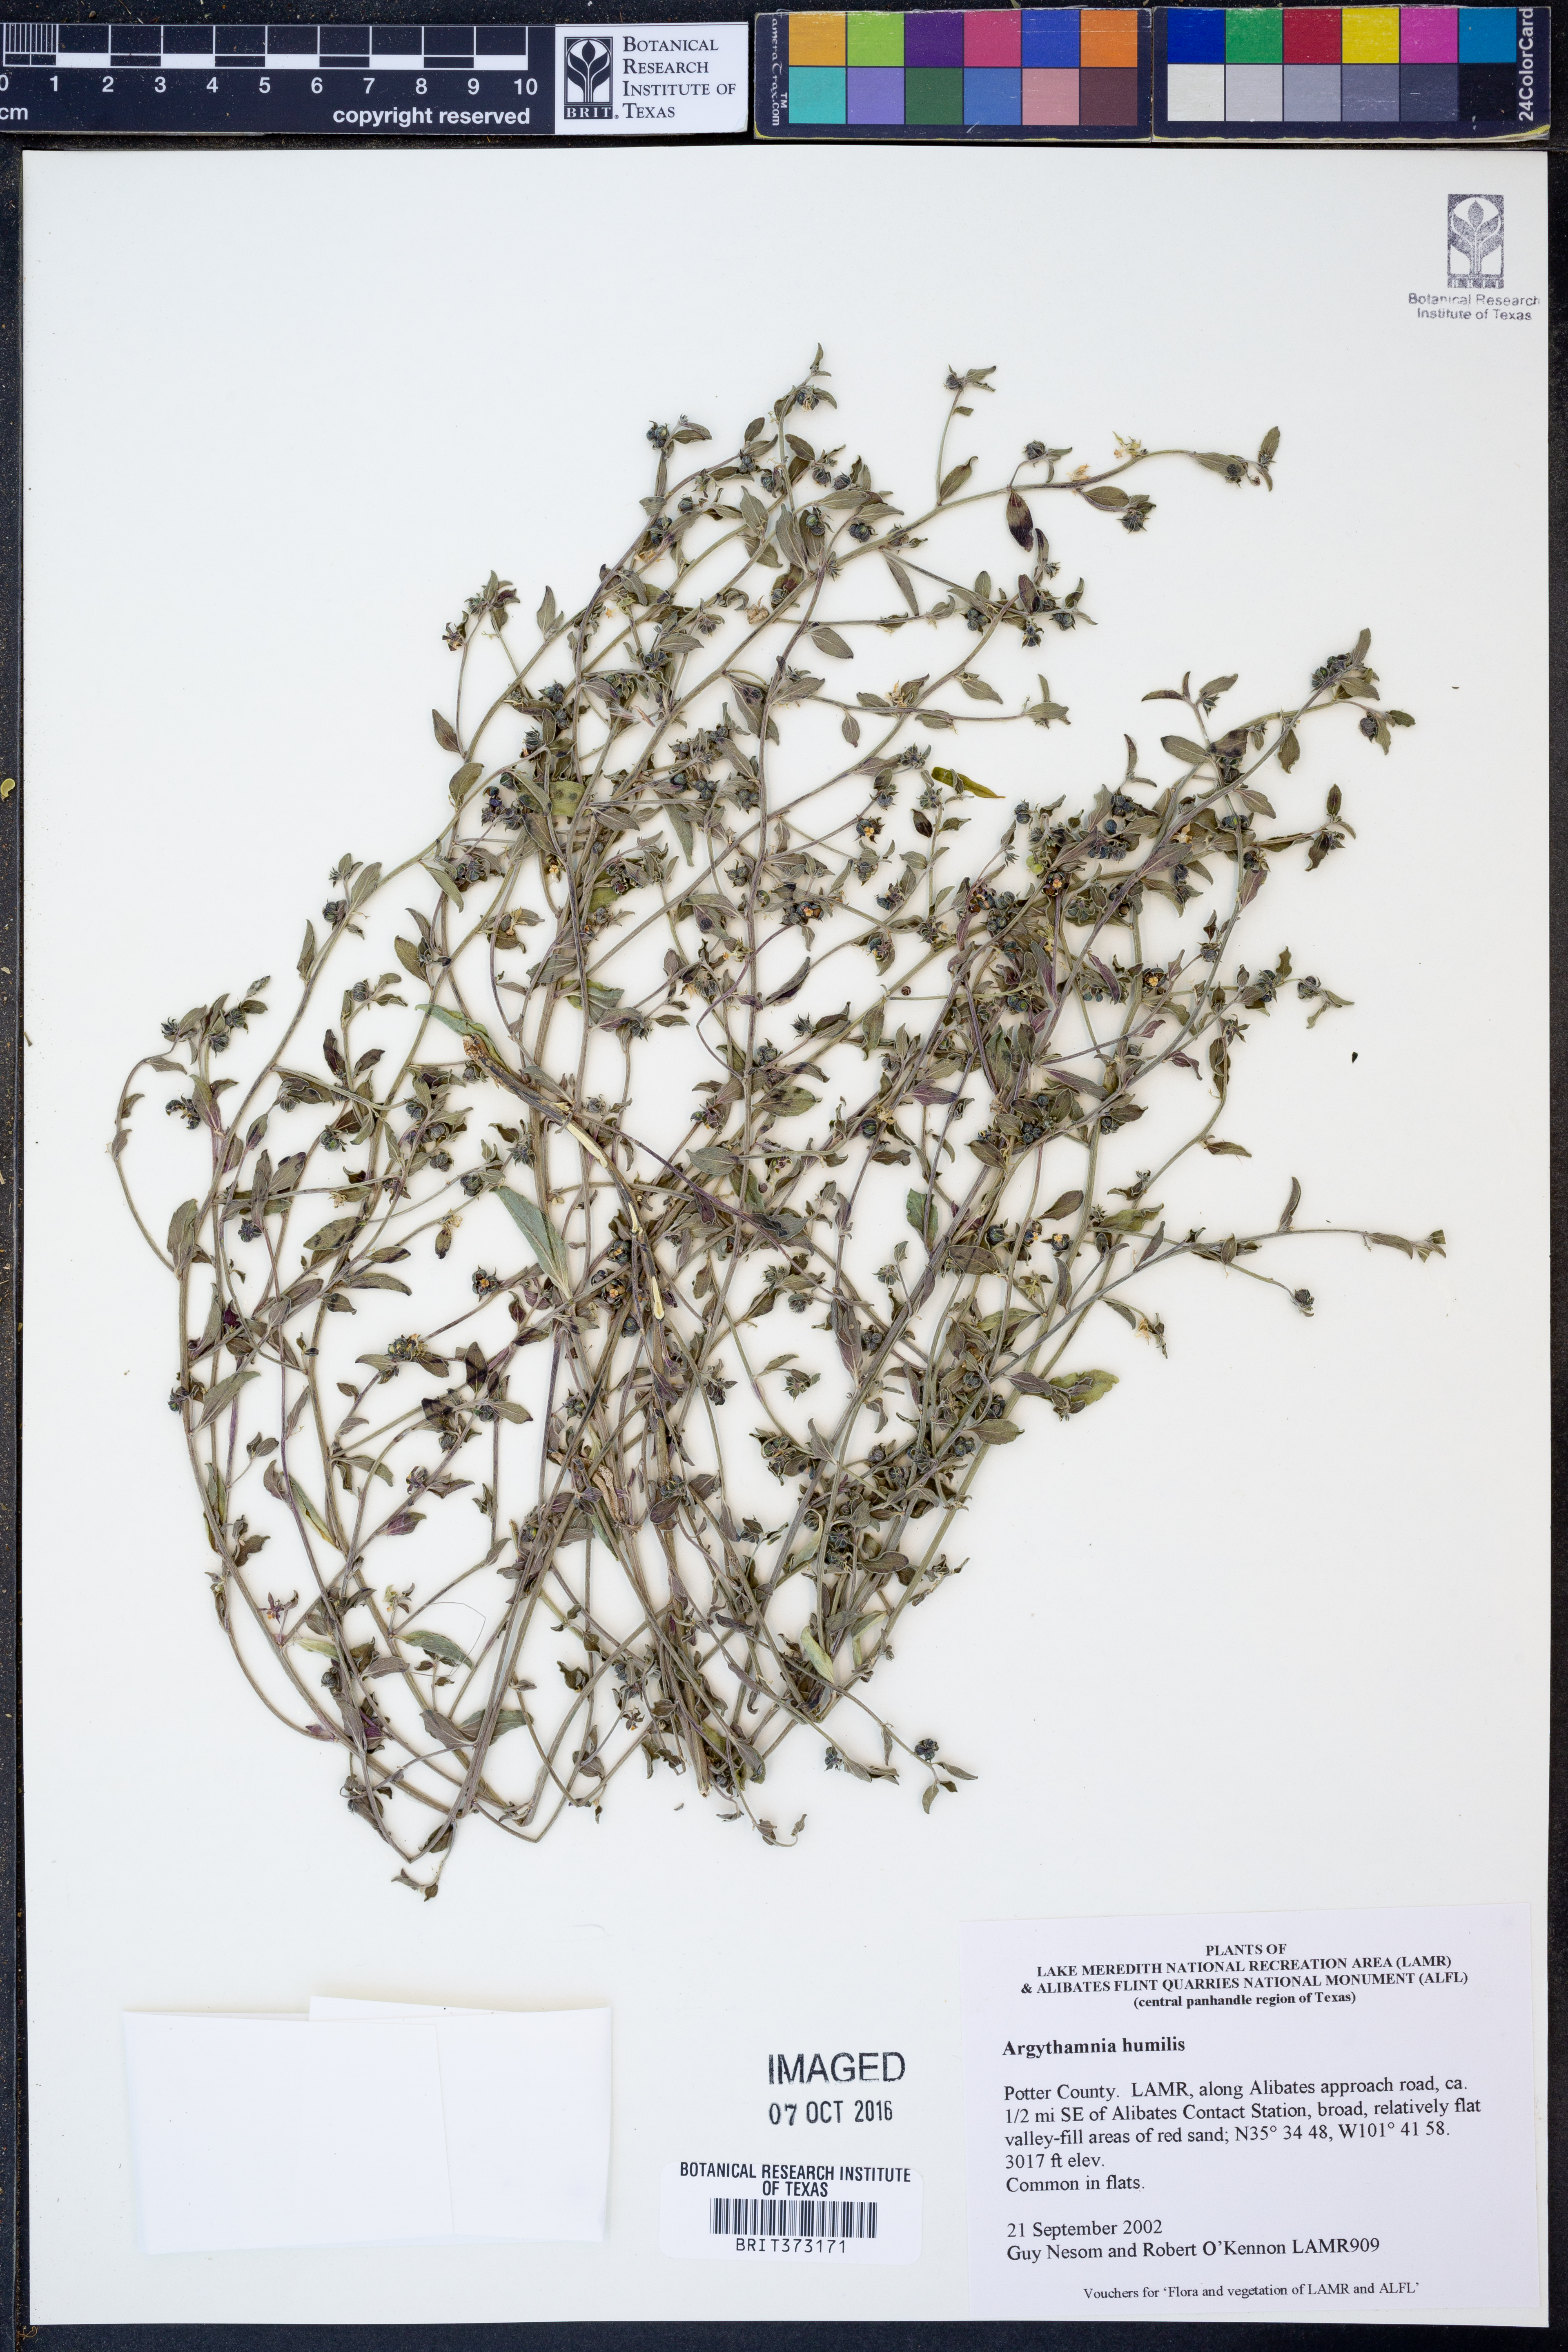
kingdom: Plantae
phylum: Tracheophyta
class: Magnoliopsida
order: Malpighiales
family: Euphorbiaceae
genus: Ditaxis
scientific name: Ditaxis humilis
